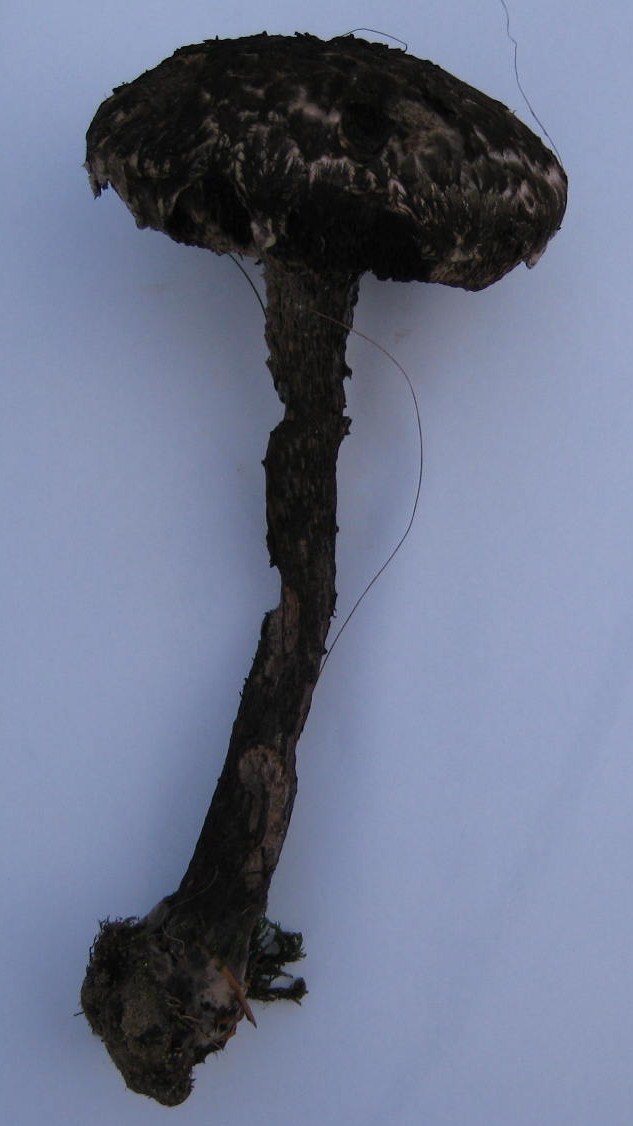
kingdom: Fungi
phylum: Basidiomycota
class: Agaricomycetes
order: Boletales
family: Boletaceae
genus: Strobilomyces
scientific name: Strobilomyces strobilaceus
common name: koglerørhat
